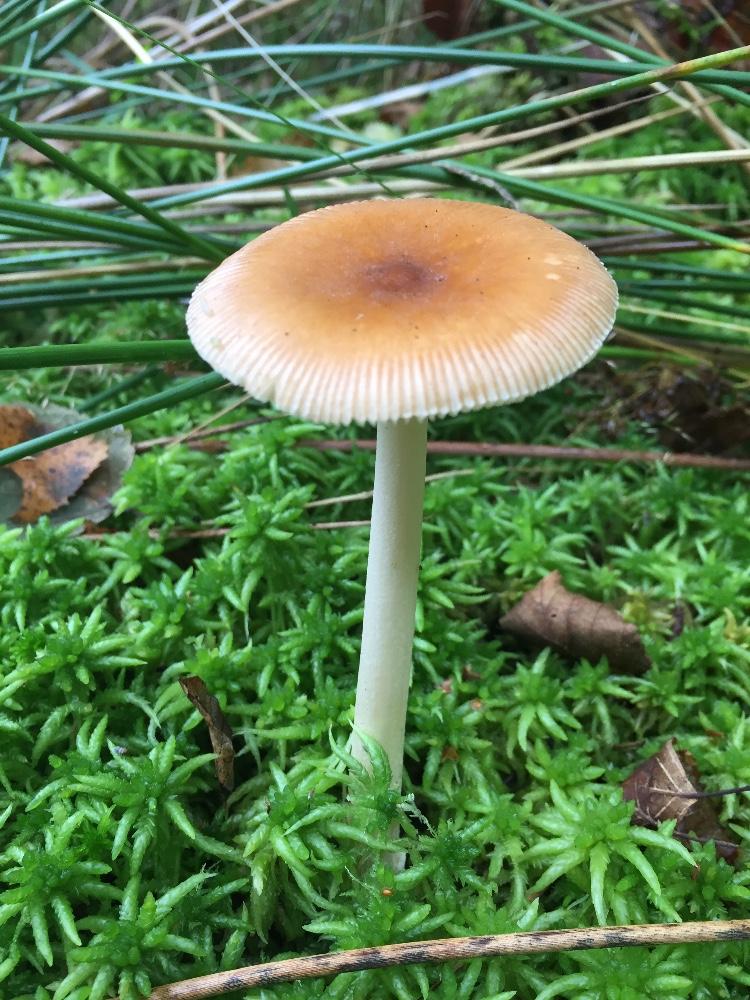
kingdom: Fungi
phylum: Basidiomycota
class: Agaricomycetes
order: Agaricales
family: Amanitaceae
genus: Amanita
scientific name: Amanita fulva
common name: brun kam-fluesvamp
